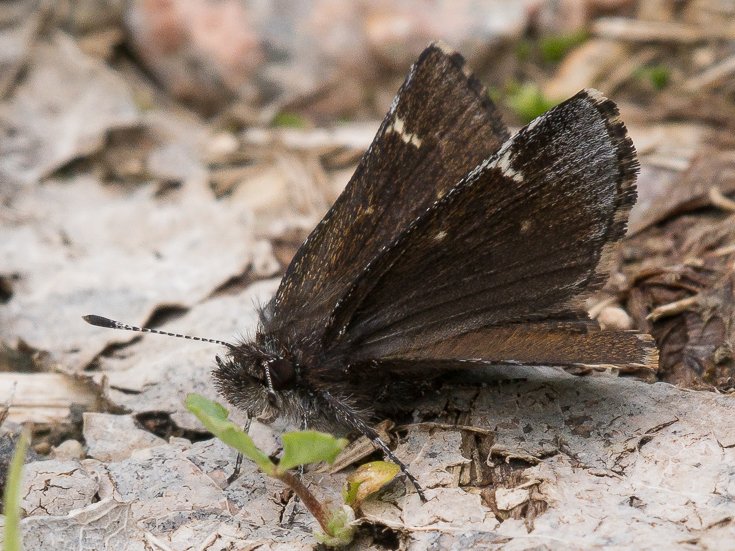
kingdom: Animalia
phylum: Arthropoda
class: Insecta
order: Lepidoptera
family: Hesperiidae
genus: Mastor
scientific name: Mastor vialis
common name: Common Roadside-Skipper
